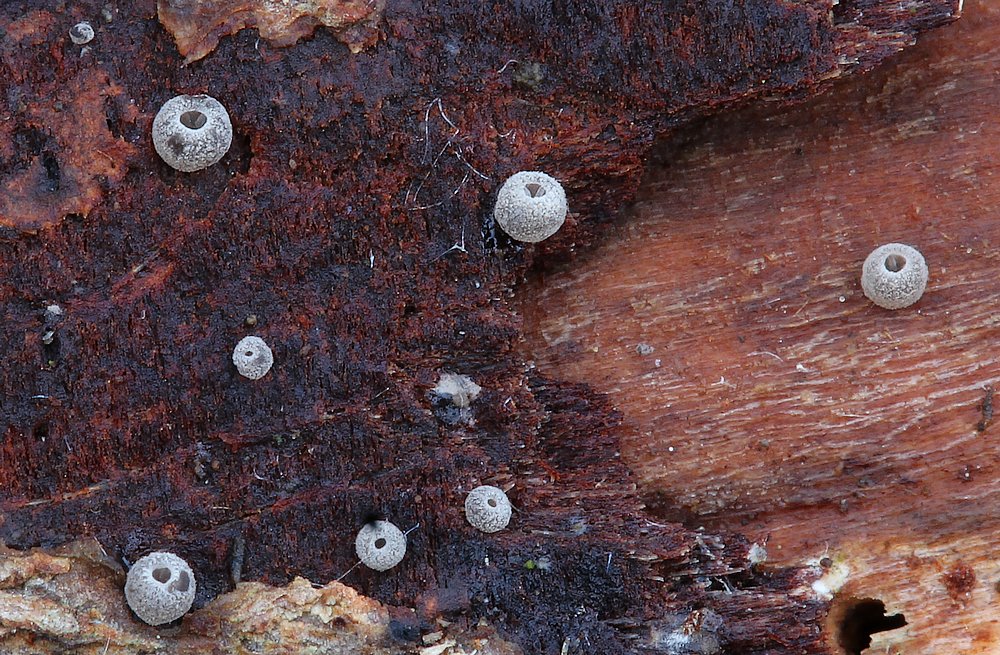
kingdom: Fungi
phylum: Basidiomycota
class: Agaricomycetes
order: Agaricales
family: Pleurotaceae
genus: Resupinatus
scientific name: Resupinatus
